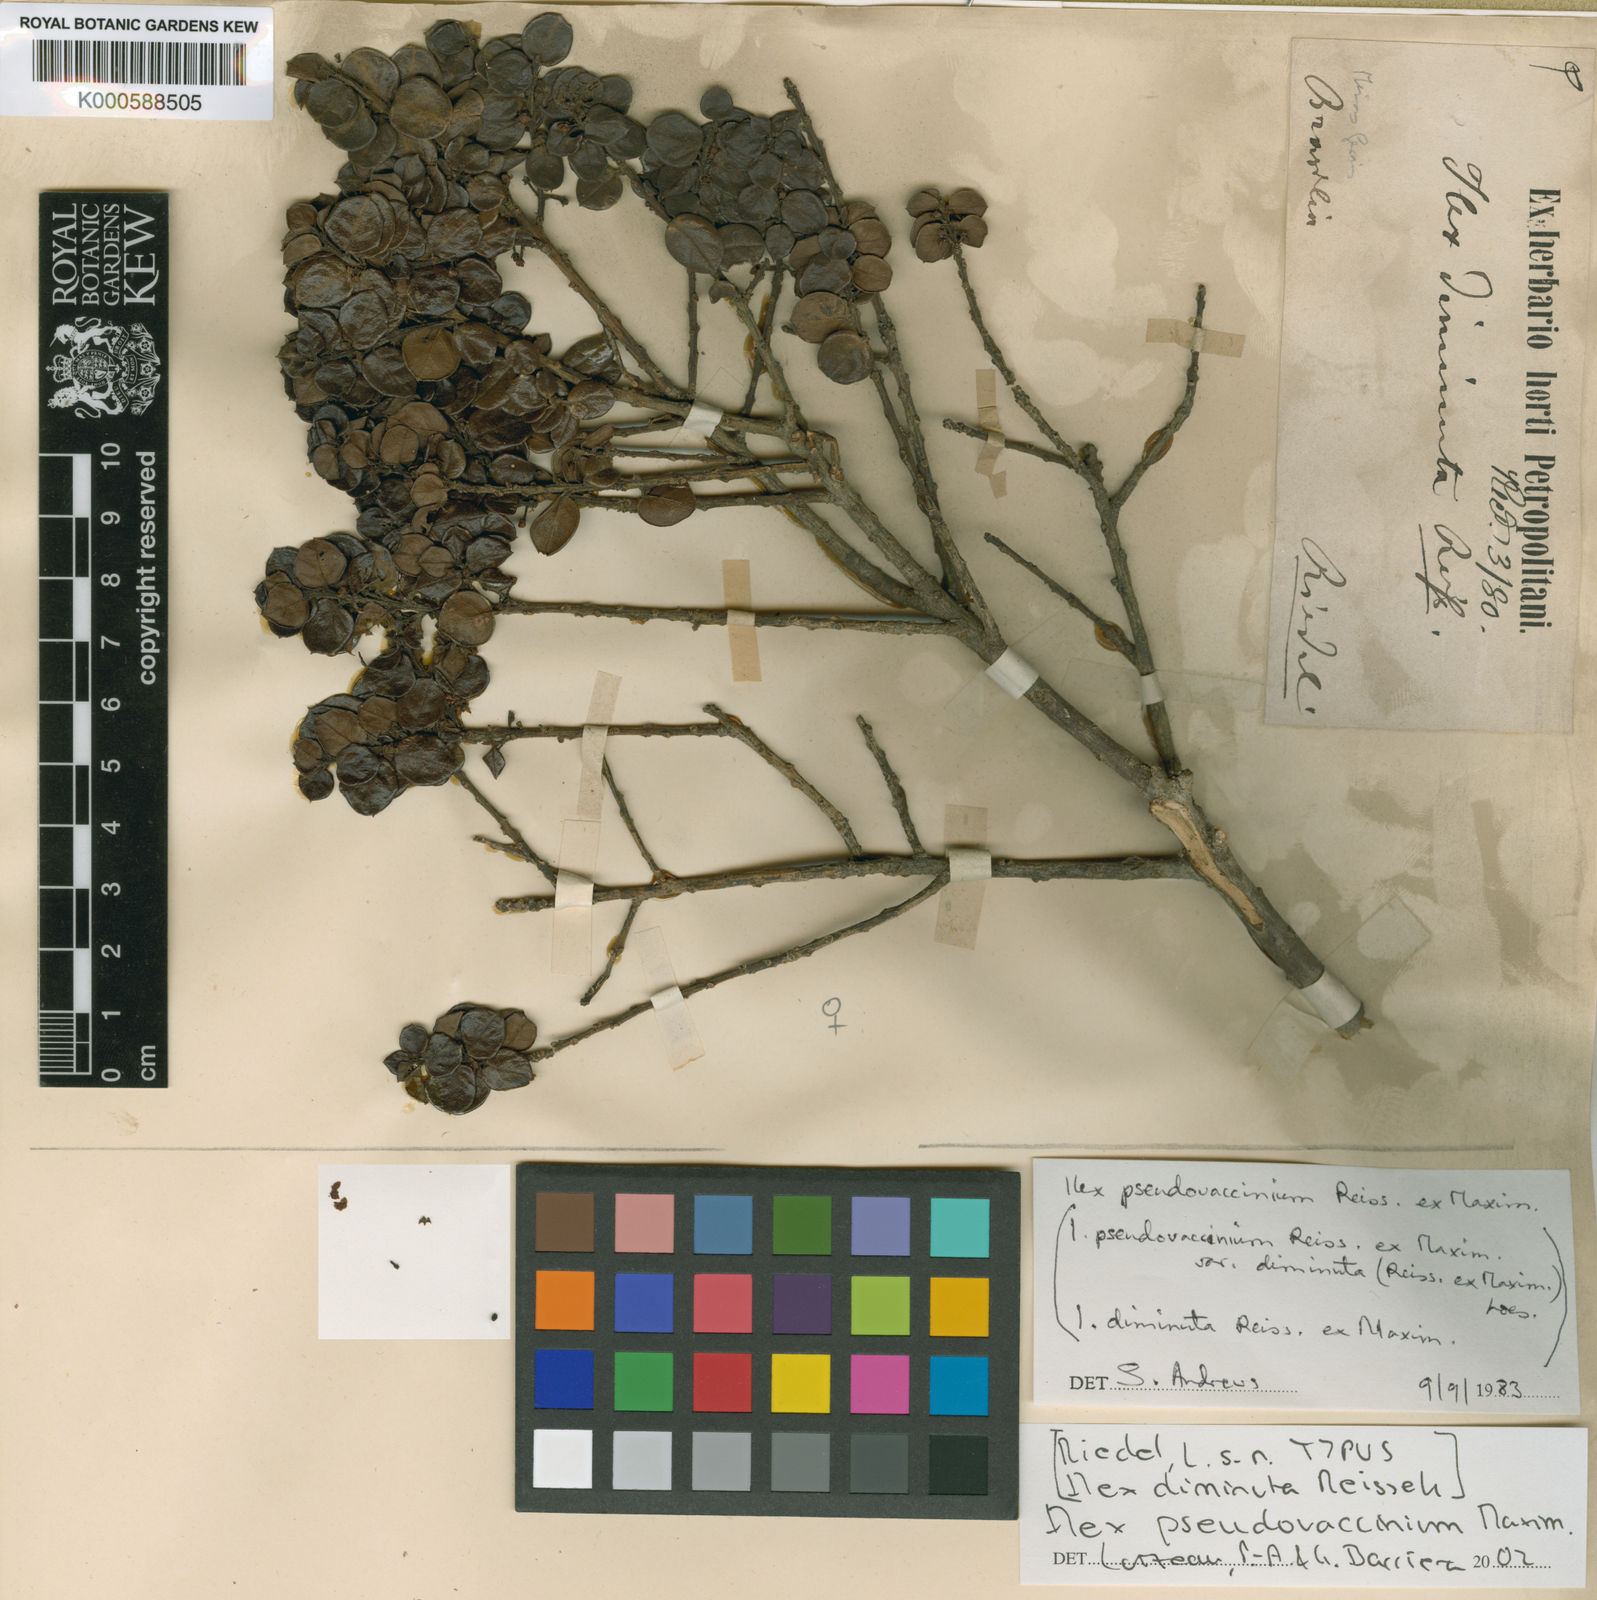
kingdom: Plantae
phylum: Tracheophyta
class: Magnoliopsida
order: Aquifoliales
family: Aquifoliaceae
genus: Ilex
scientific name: Ilex
